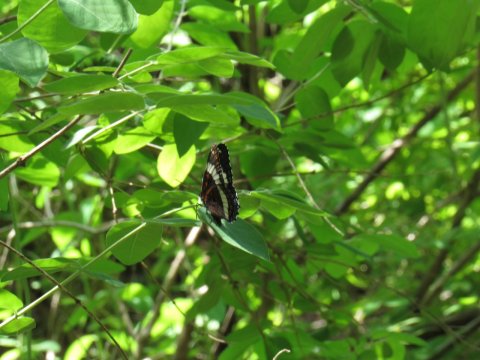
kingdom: Animalia
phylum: Arthropoda
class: Insecta
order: Lepidoptera
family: Nymphalidae
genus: Limenitis
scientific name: Limenitis arthemis
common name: Red-spotted Admiral
